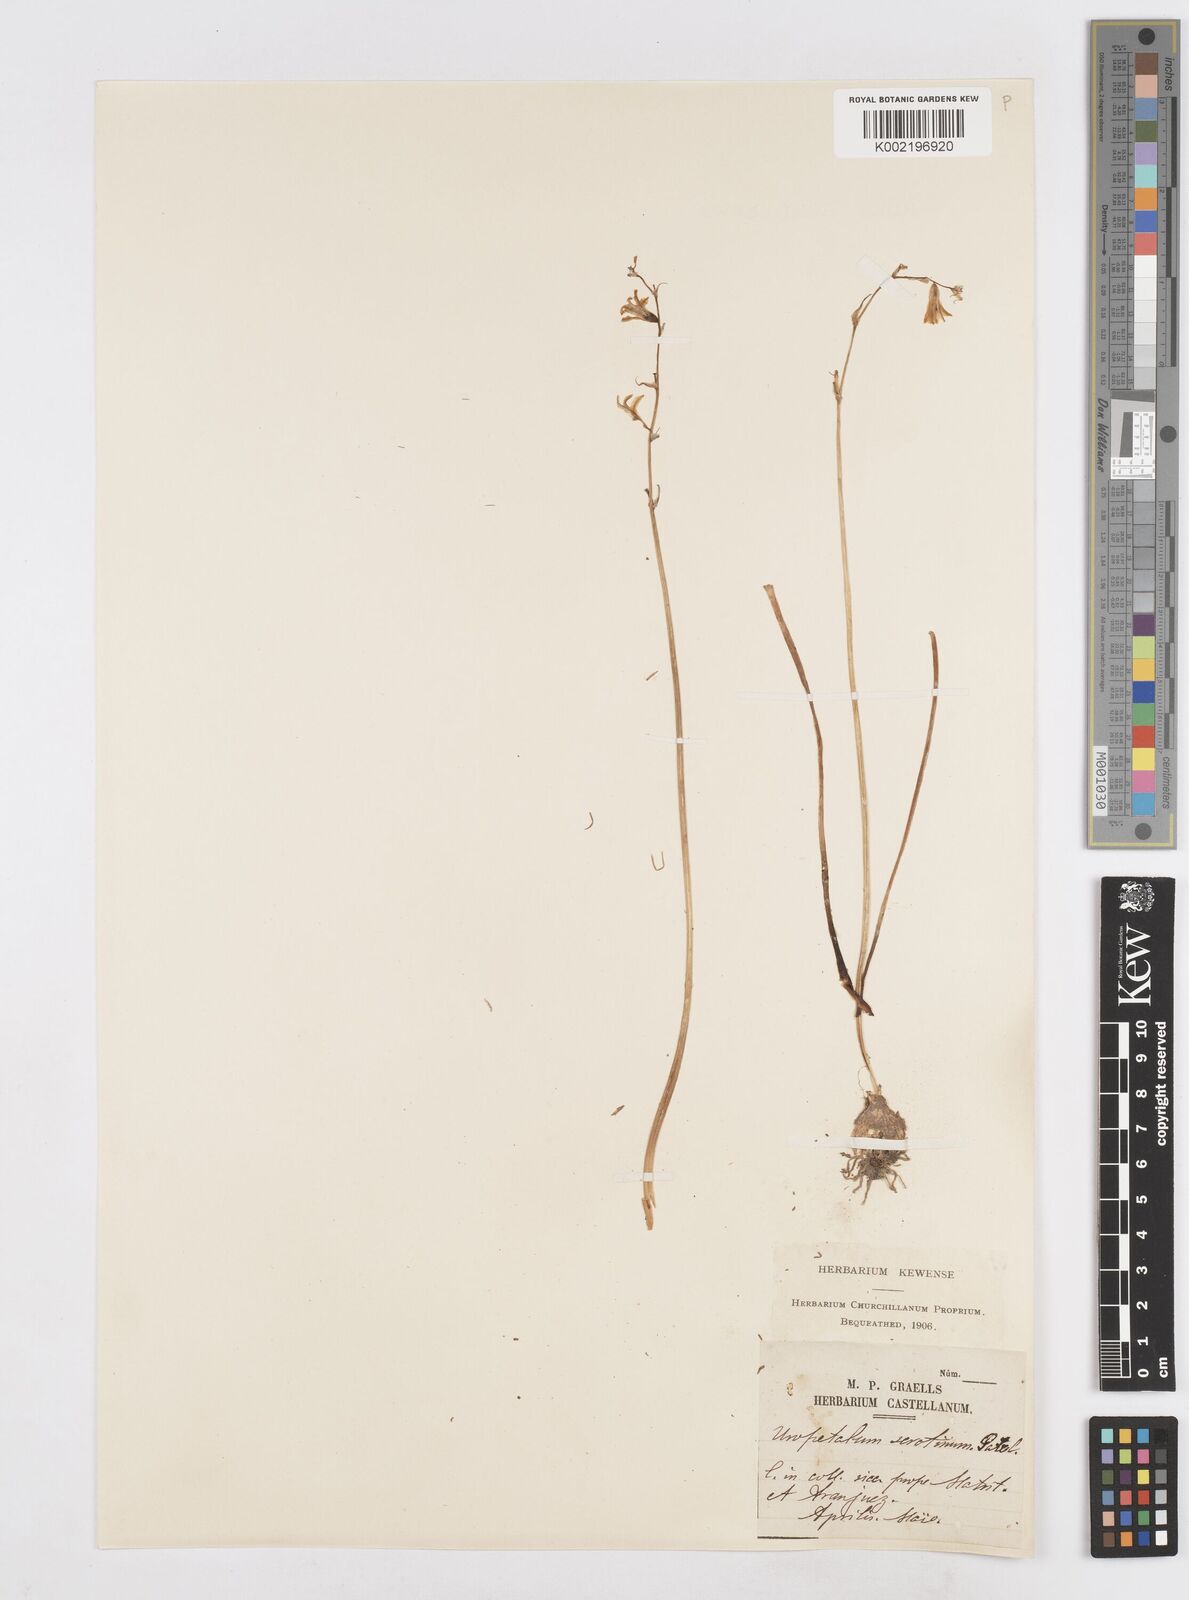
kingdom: Plantae
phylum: Tracheophyta
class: Liliopsida
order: Asparagales
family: Asparagaceae
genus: Dipcadi
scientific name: Dipcadi serotinum
